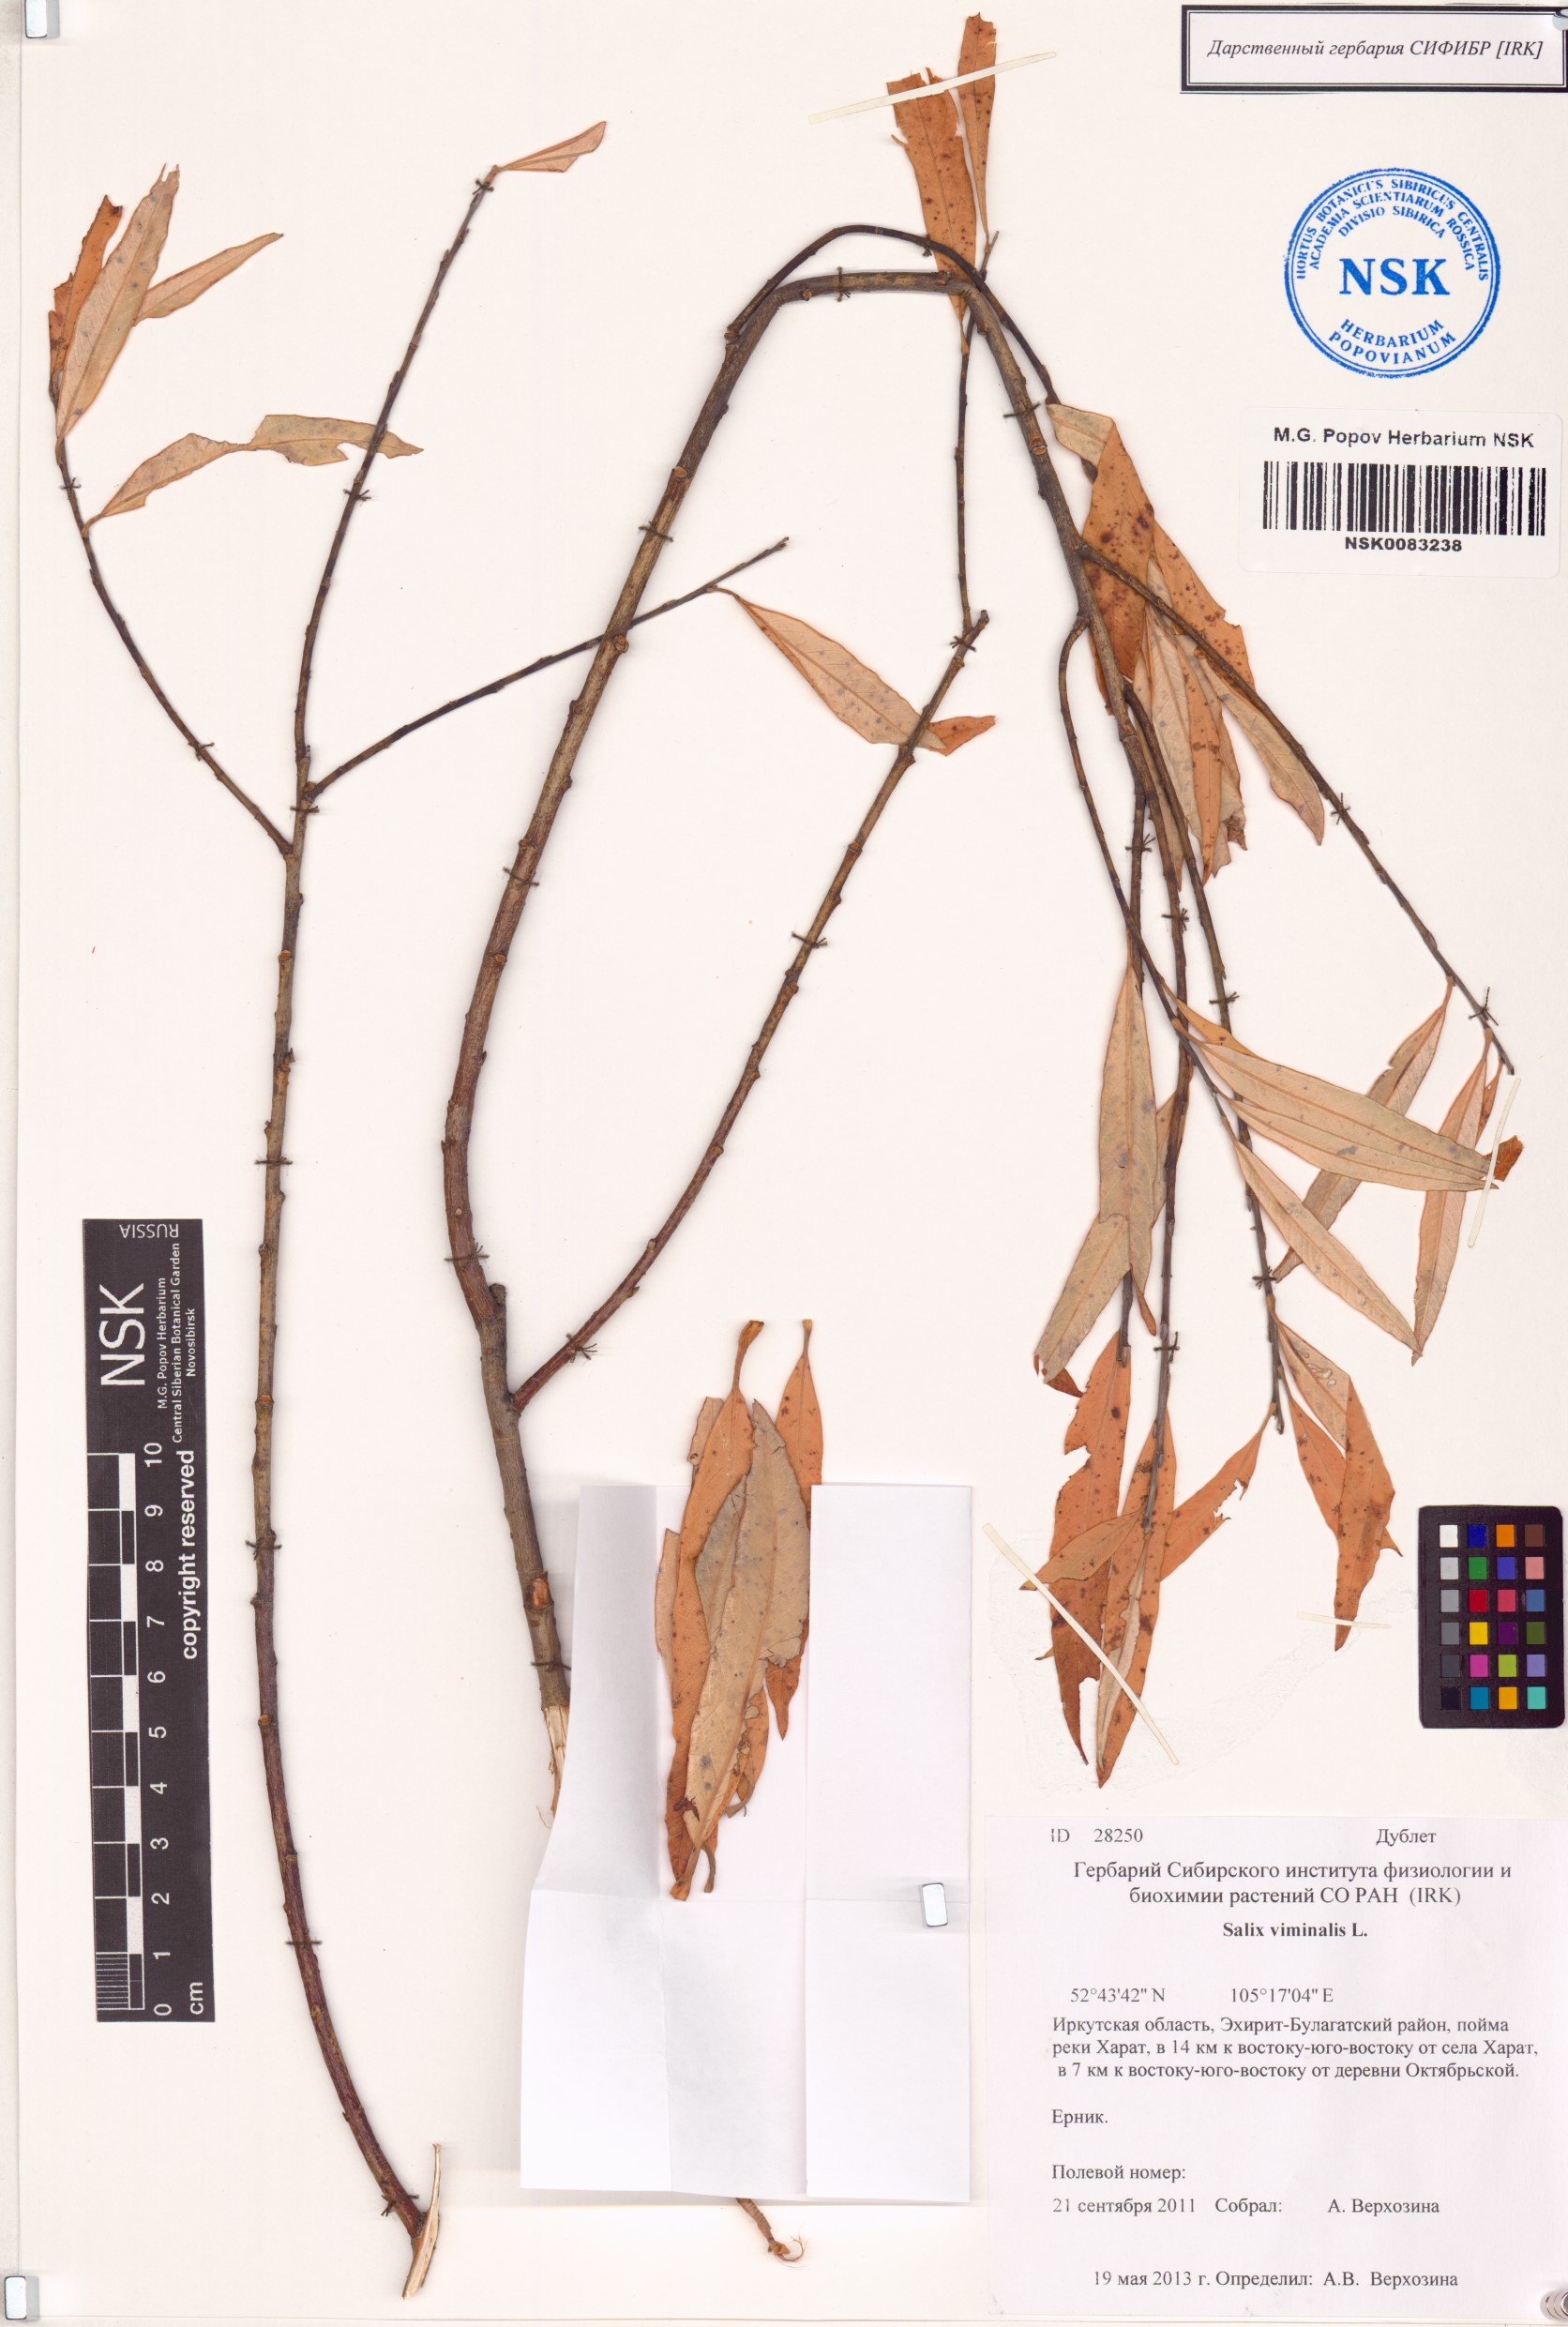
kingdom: Plantae
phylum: Tracheophyta
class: Magnoliopsida
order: Malpighiales
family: Salicaceae
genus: Salix
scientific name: Salix viminalis
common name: Osier
